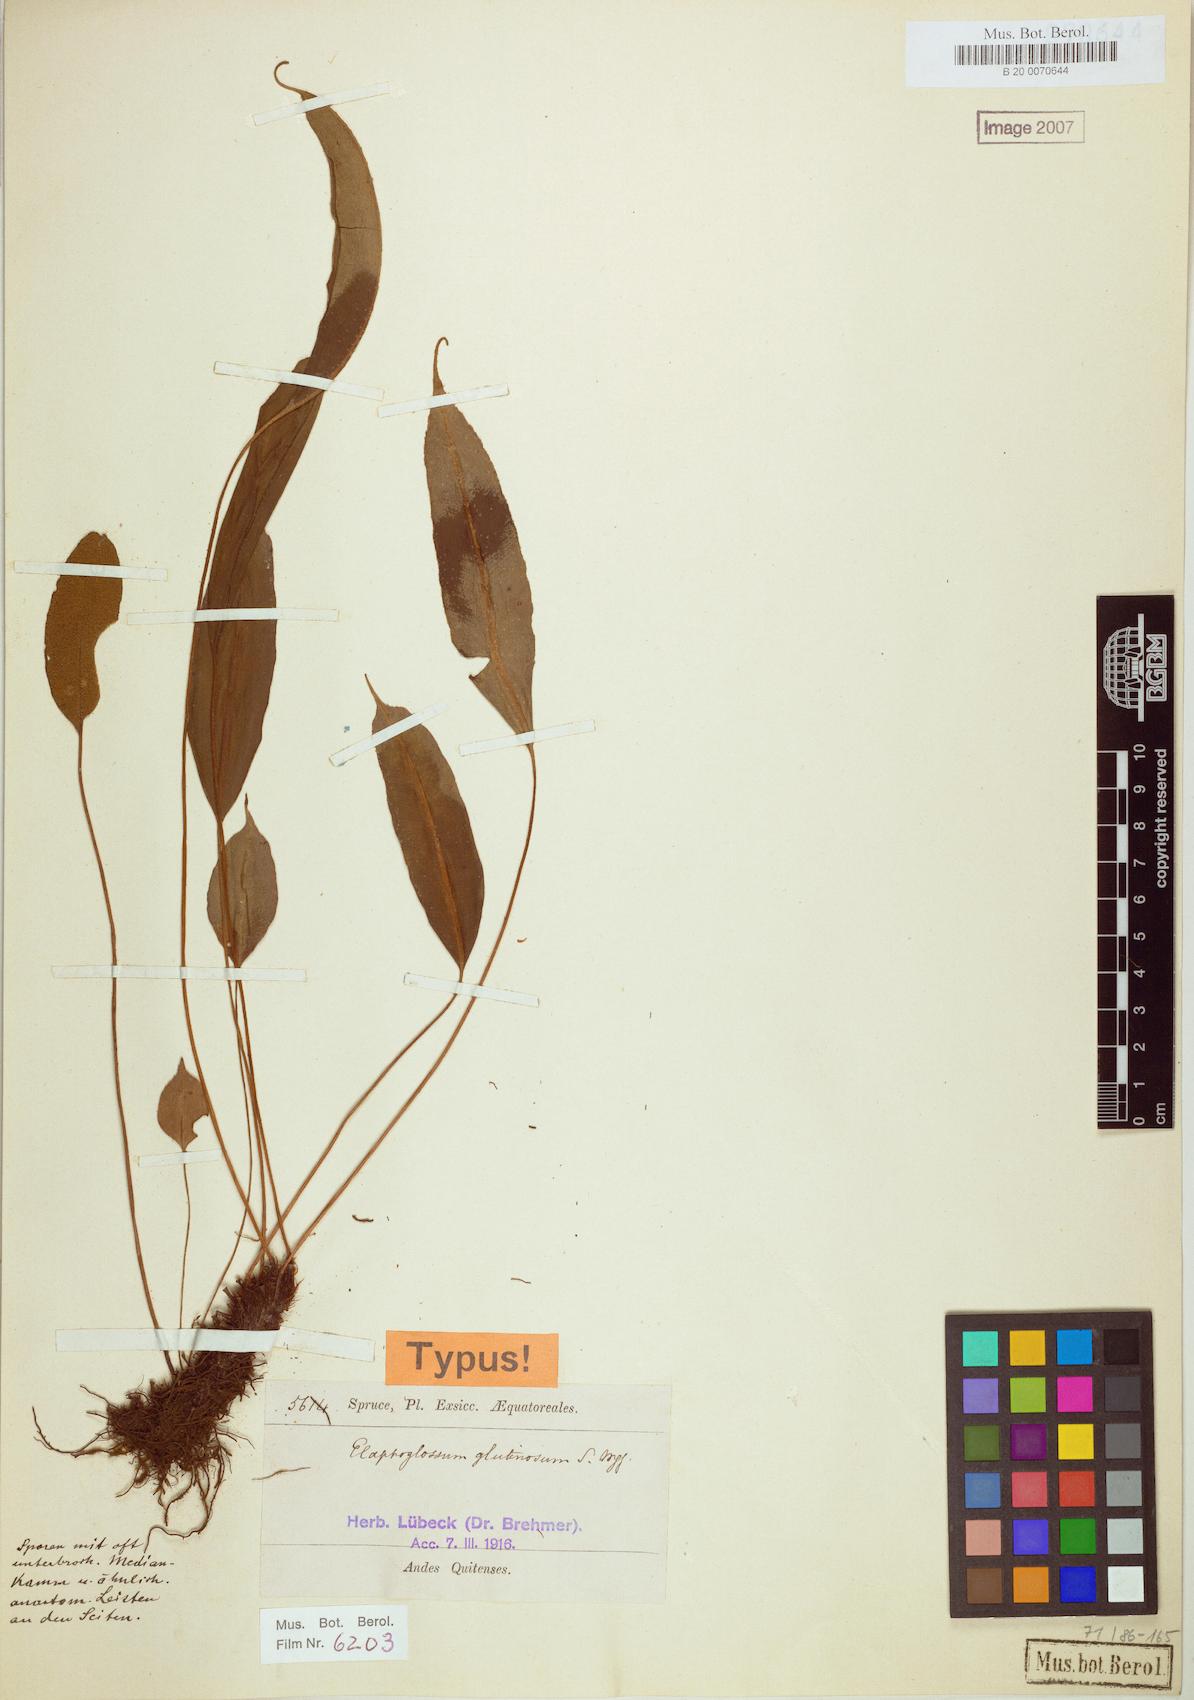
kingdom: Plantae
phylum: Tracheophyta
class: Polypodiopsida
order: Polypodiales
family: Dryopteridaceae
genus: Elaphoglossum
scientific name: Elaphoglossum petiolosum
